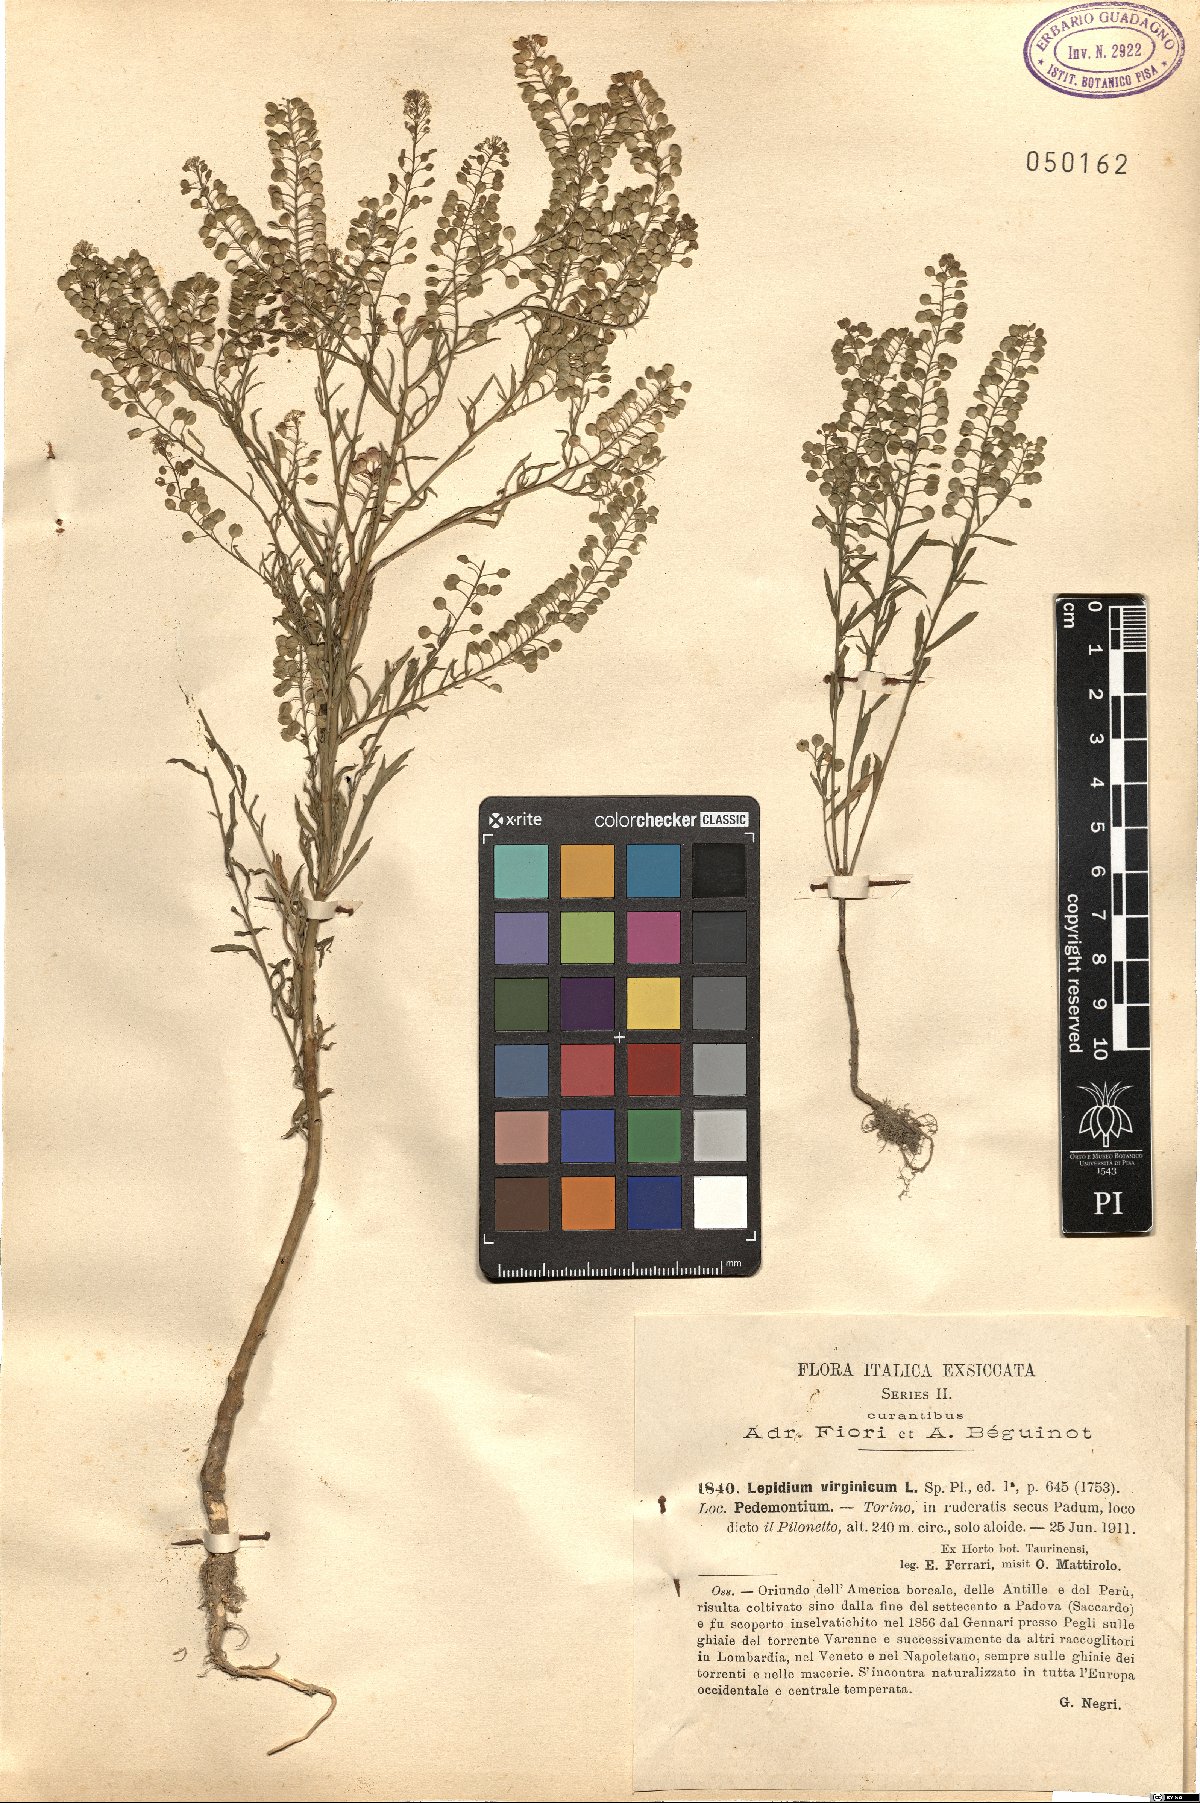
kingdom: Plantae
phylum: Tracheophyta
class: Magnoliopsida
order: Brassicales
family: Brassicaceae
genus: Lepidium
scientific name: Lepidium virginicum
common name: Least pepperwort
